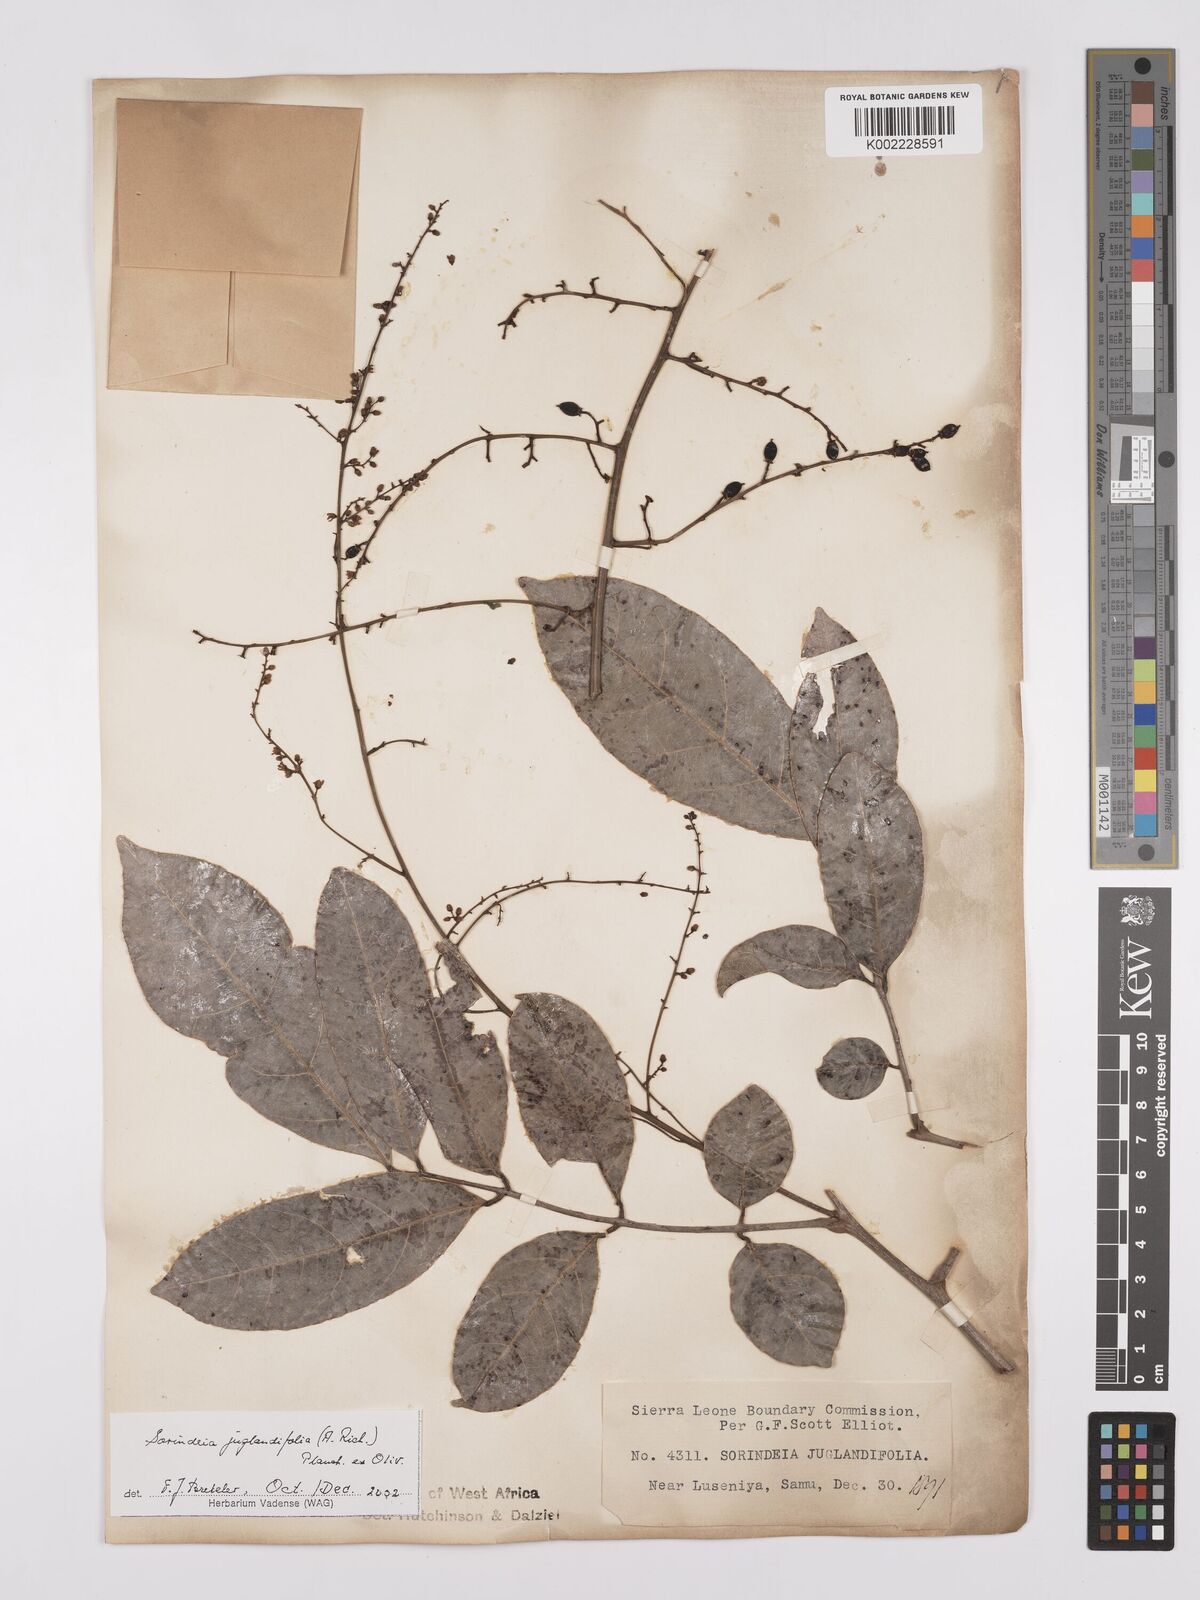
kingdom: Plantae
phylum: Tracheophyta
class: Magnoliopsida
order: Sapindales
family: Anacardiaceae
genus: Sorindeia
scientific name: Sorindeia juglandifolia
